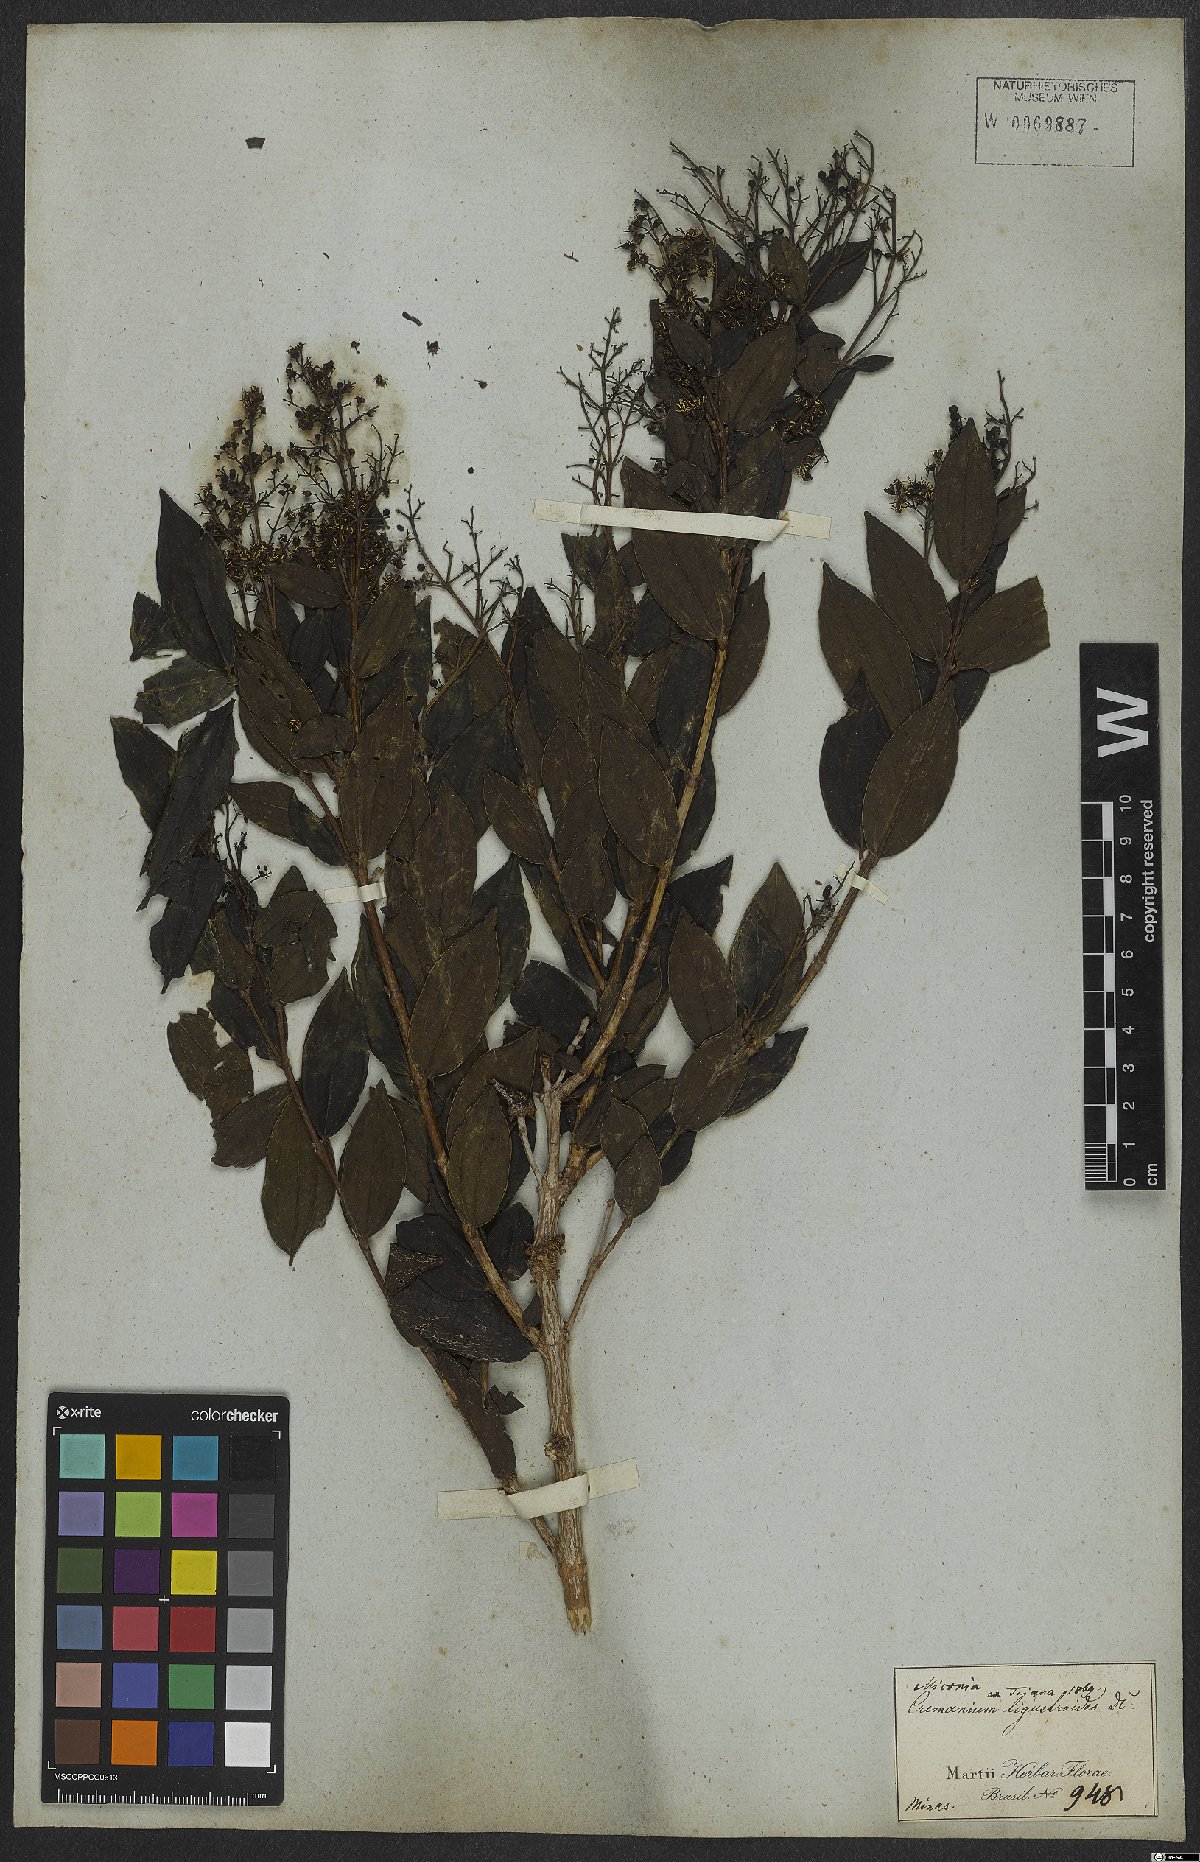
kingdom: Plantae
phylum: Tracheophyta
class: Magnoliopsida
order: Myrtales
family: Melastomataceae
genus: Miconia
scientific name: Miconia ligustroides
